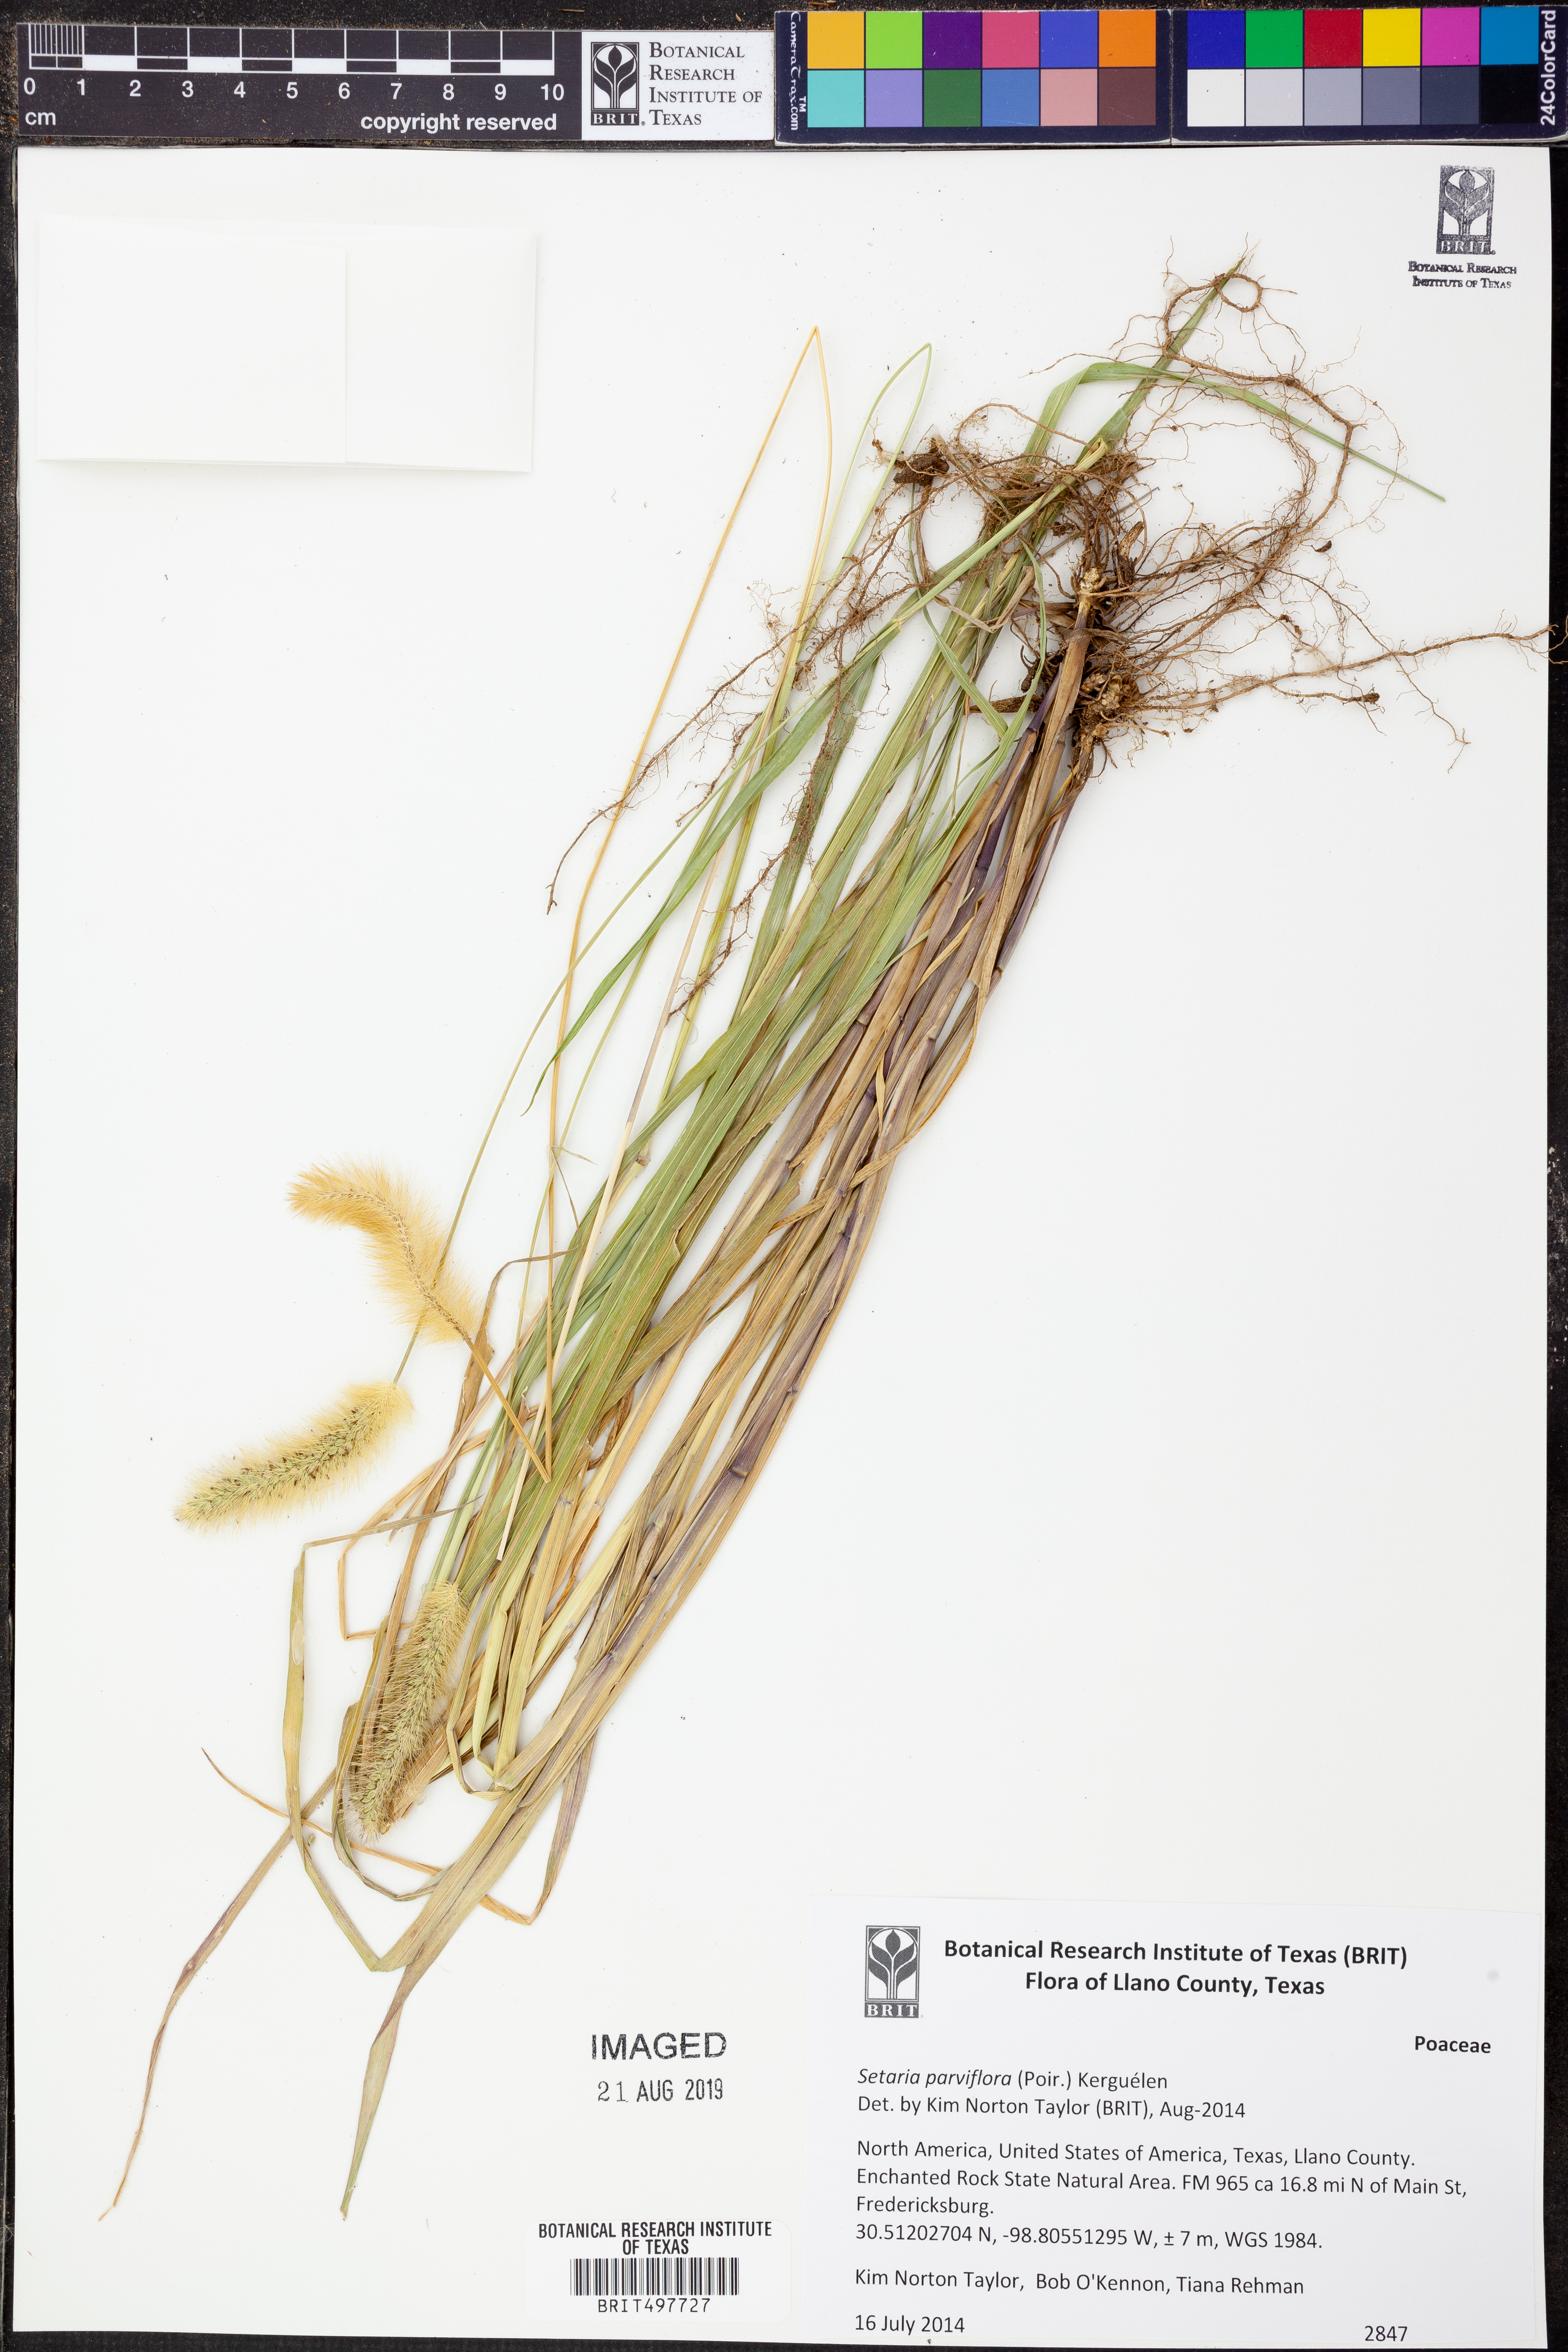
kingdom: Plantae
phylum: Tracheophyta
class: Liliopsida
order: Poales
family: Poaceae
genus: Setaria
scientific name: Setaria parviflora
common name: Knotroot bristle-grass
